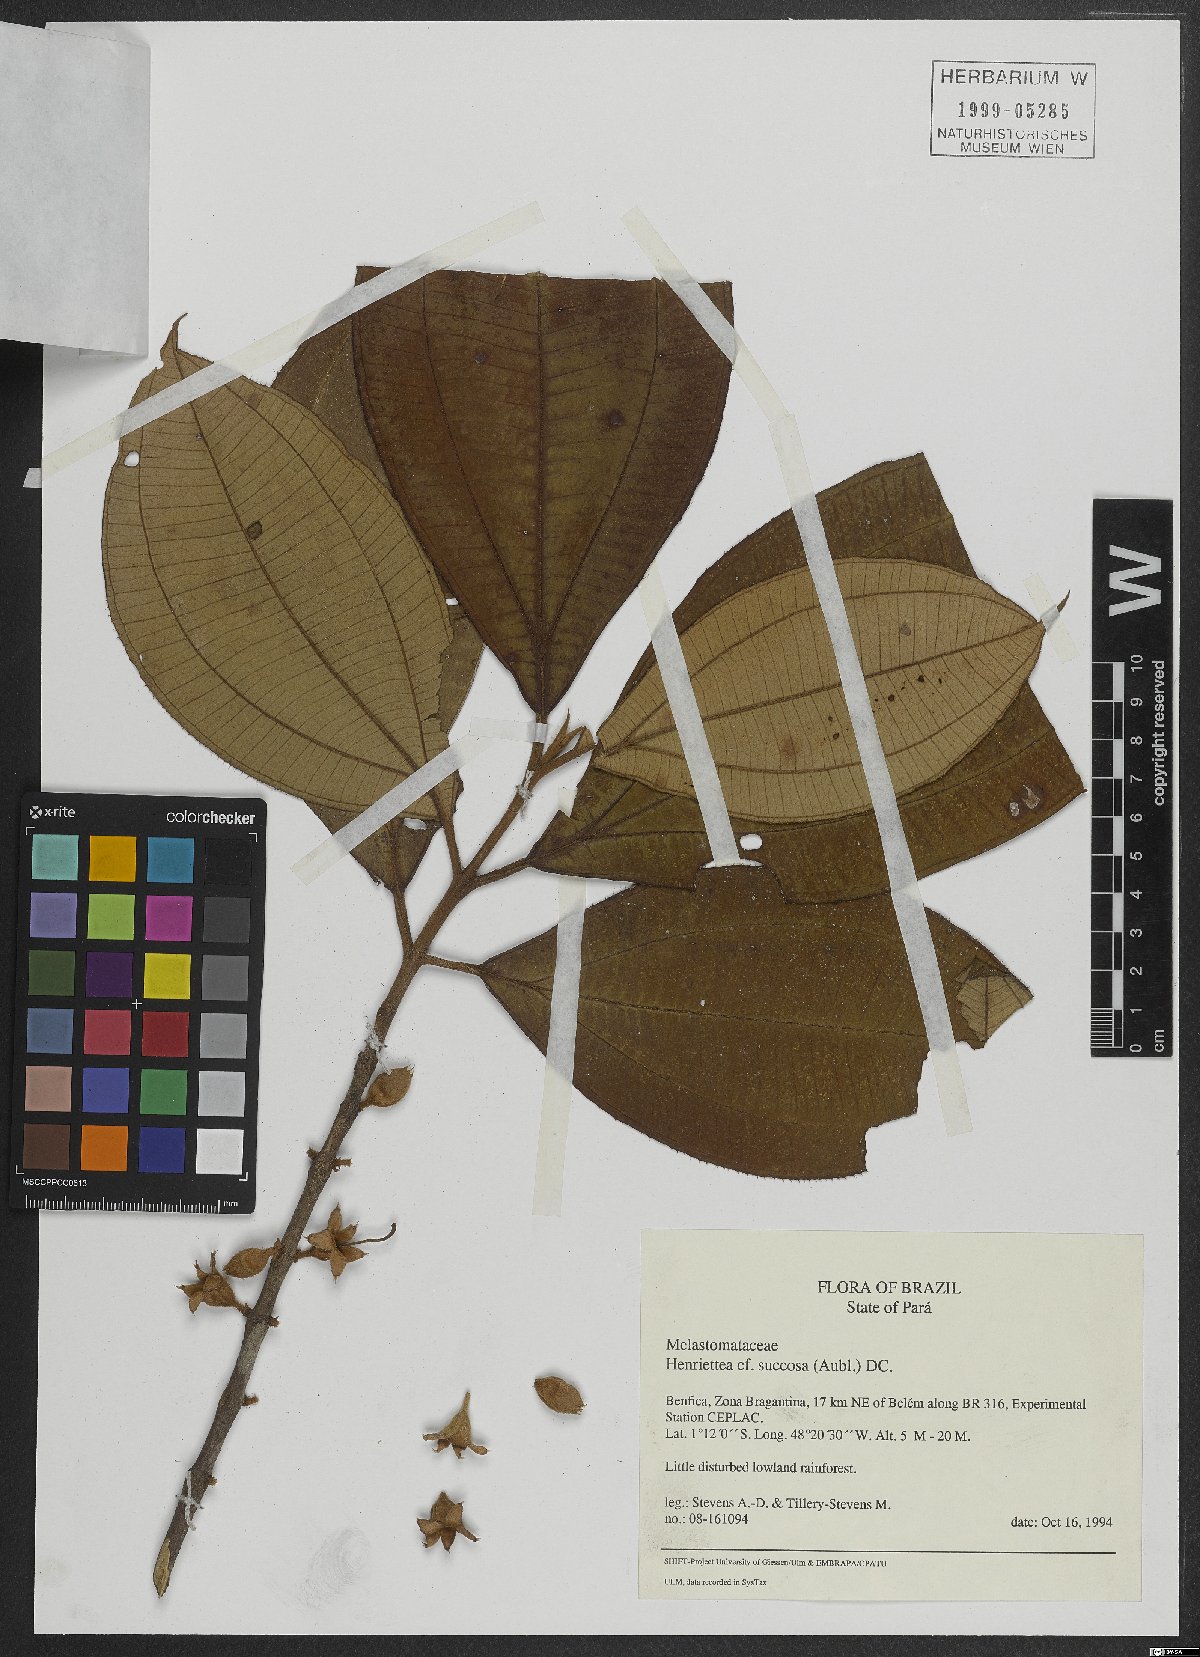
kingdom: Plantae
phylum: Tracheophyta
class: Magnoliopsida
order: Myrtales
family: Melastomataceae
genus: Henriettea
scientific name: Henriettea succosa
